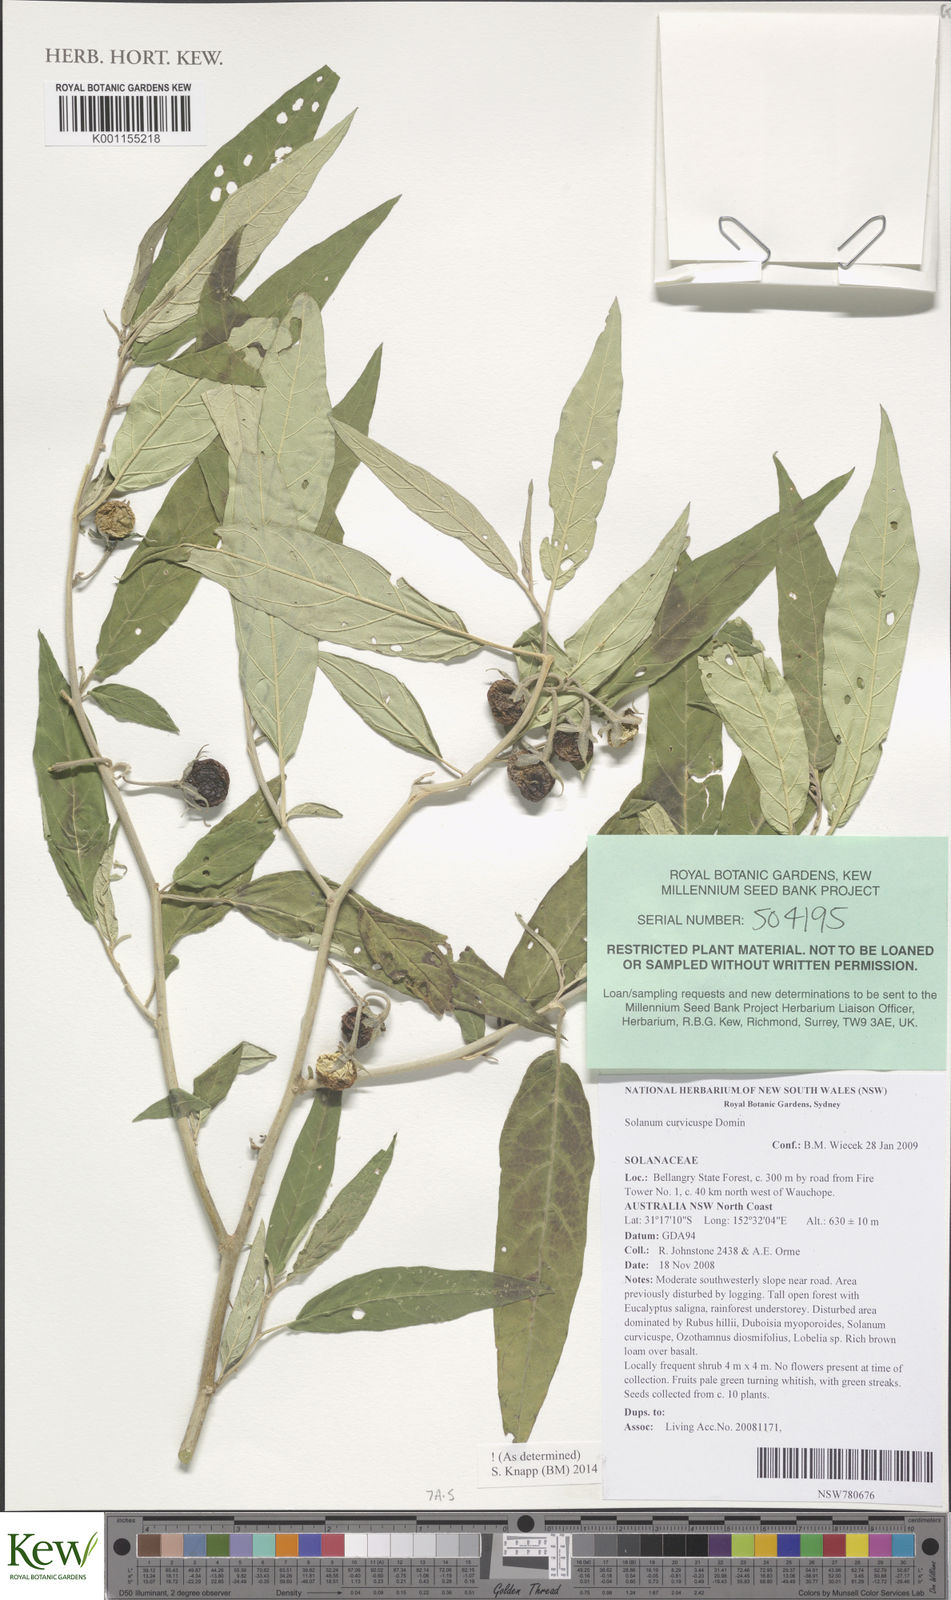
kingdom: Plantae
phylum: Tracheophyta
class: Magnoliopsida
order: Solanales
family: Solanaceae
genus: Solanum
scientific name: Solanum curvicuspe
